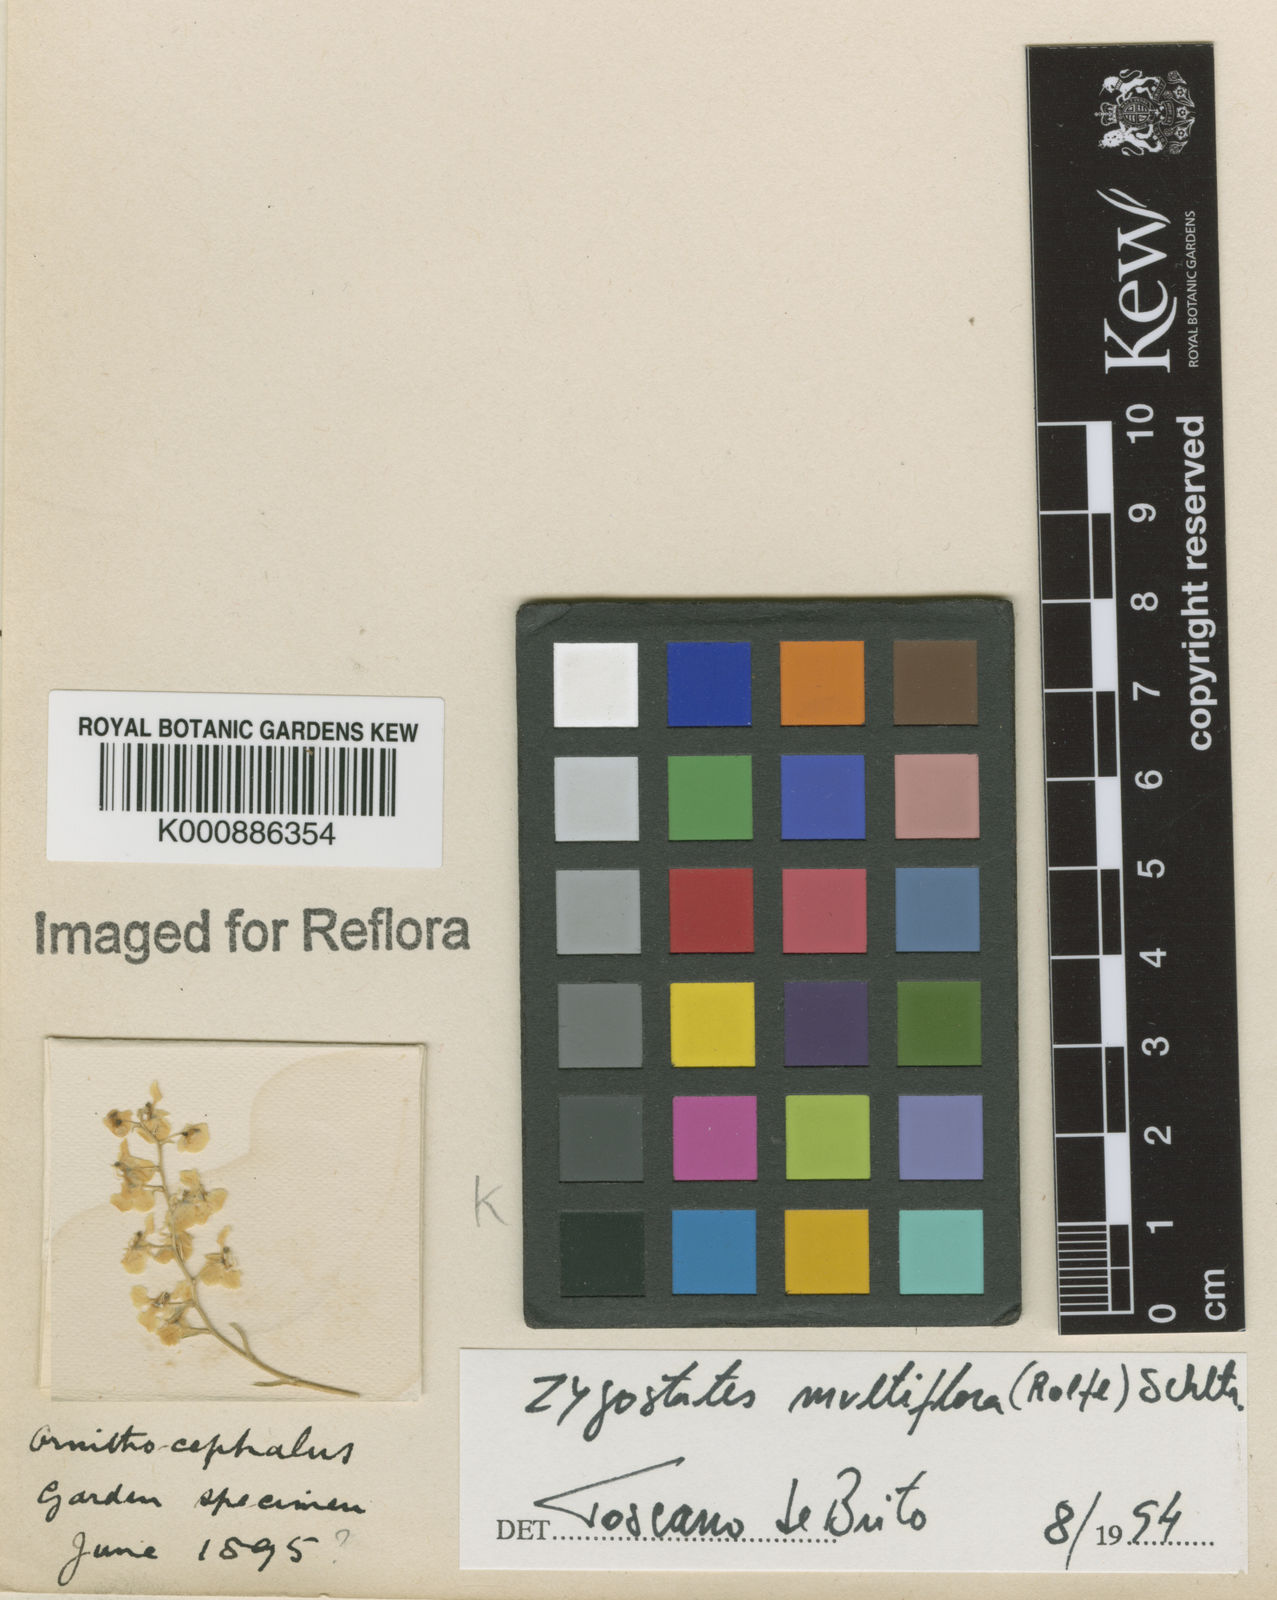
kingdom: Plantae
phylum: Tracheophyta
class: Liliopsida
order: Asparagales
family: Orchidaceae
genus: Zygostates
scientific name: Zygostates multiflora
